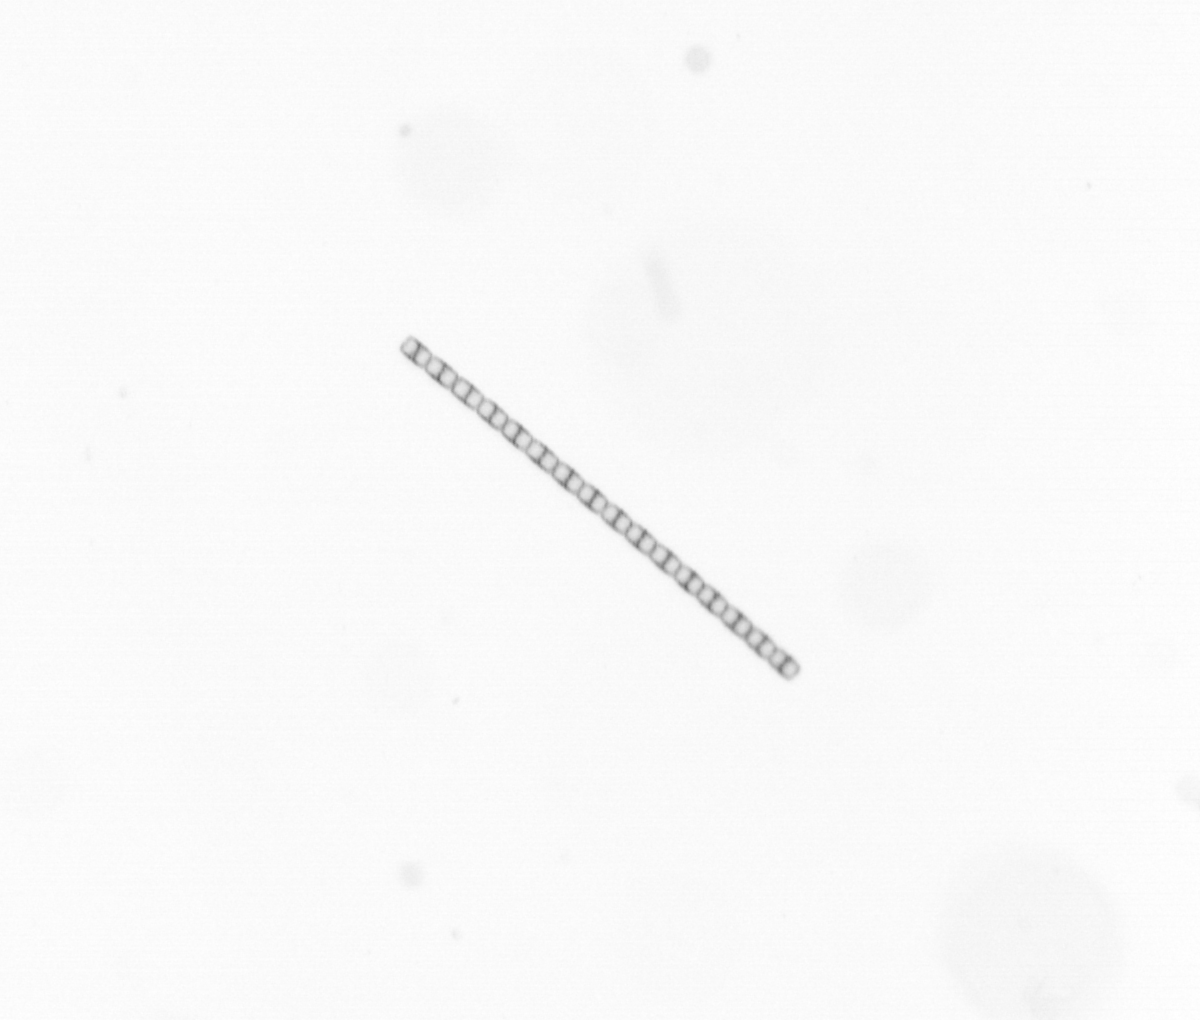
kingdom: Chromista
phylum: Ochrophyta
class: Bacillariophyceae
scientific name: Bacillariophyceae
